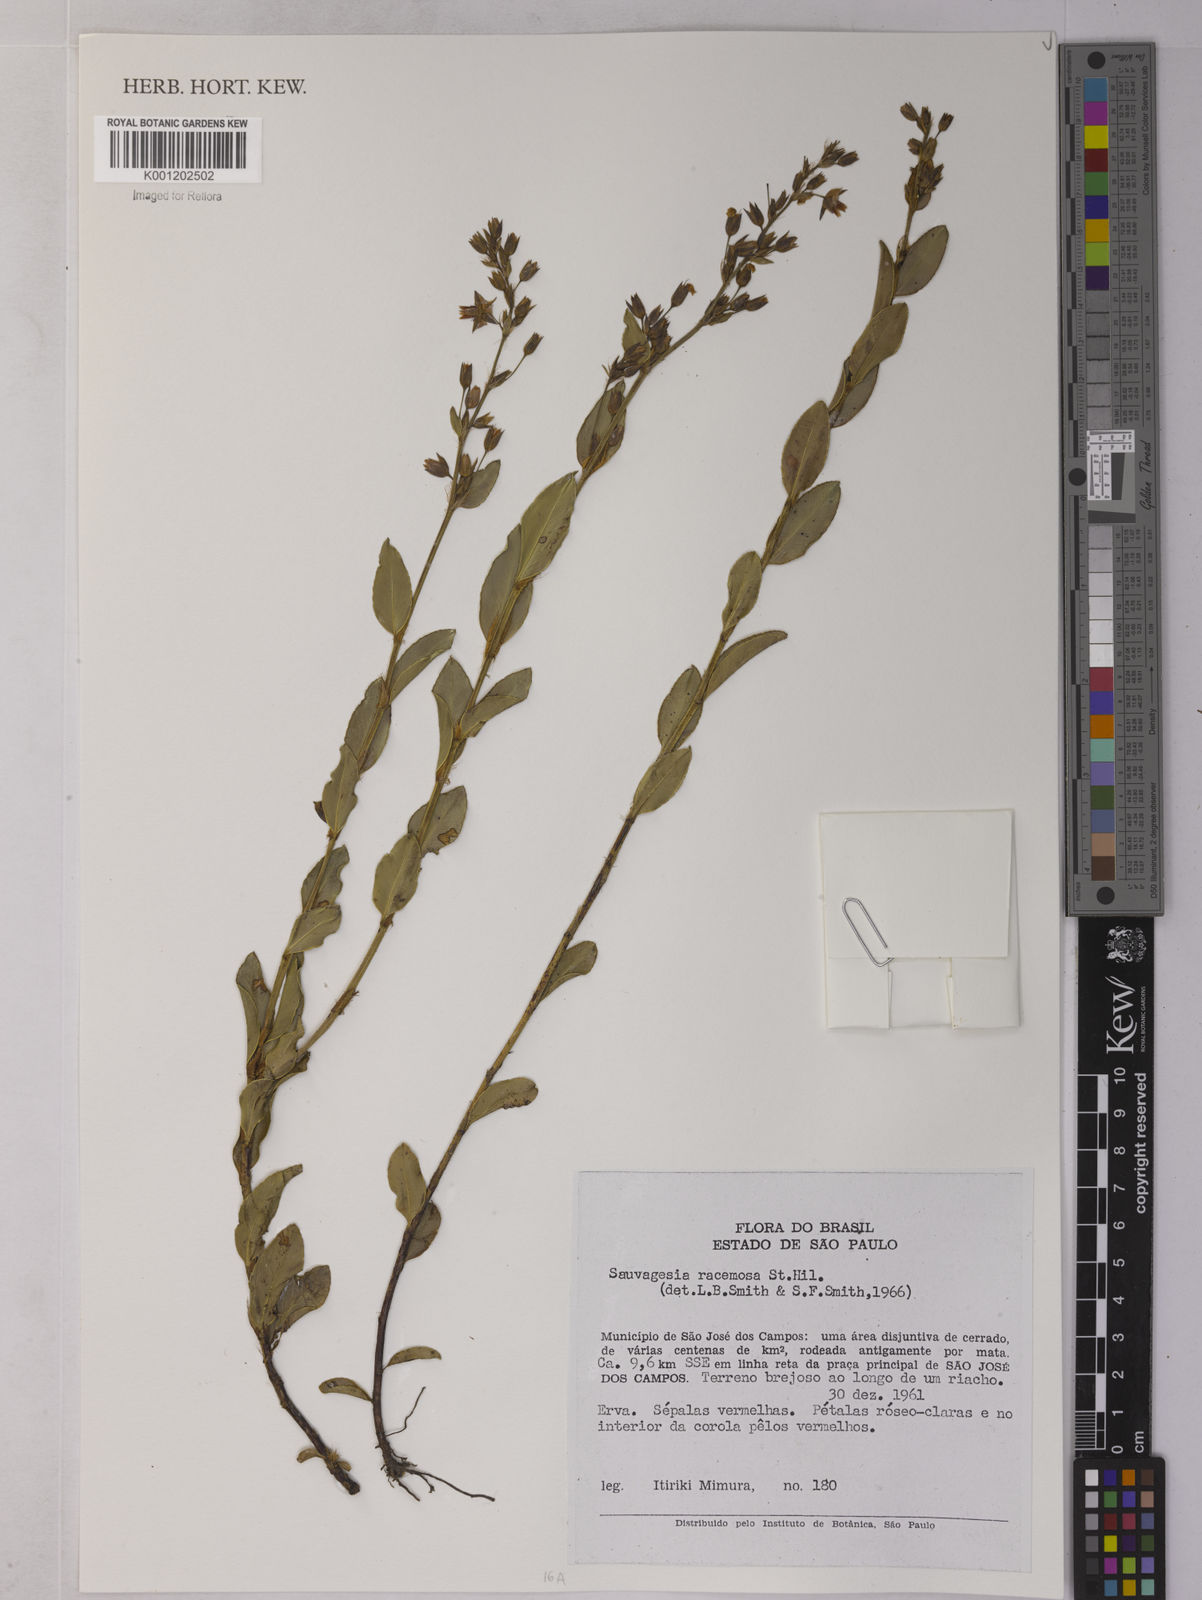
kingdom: Plantae
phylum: Tracheophyta
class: Magnoliopsida
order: Malpighiales
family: Ochnaceae
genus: Sauvagesia
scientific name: Sauvagesia racemosa
